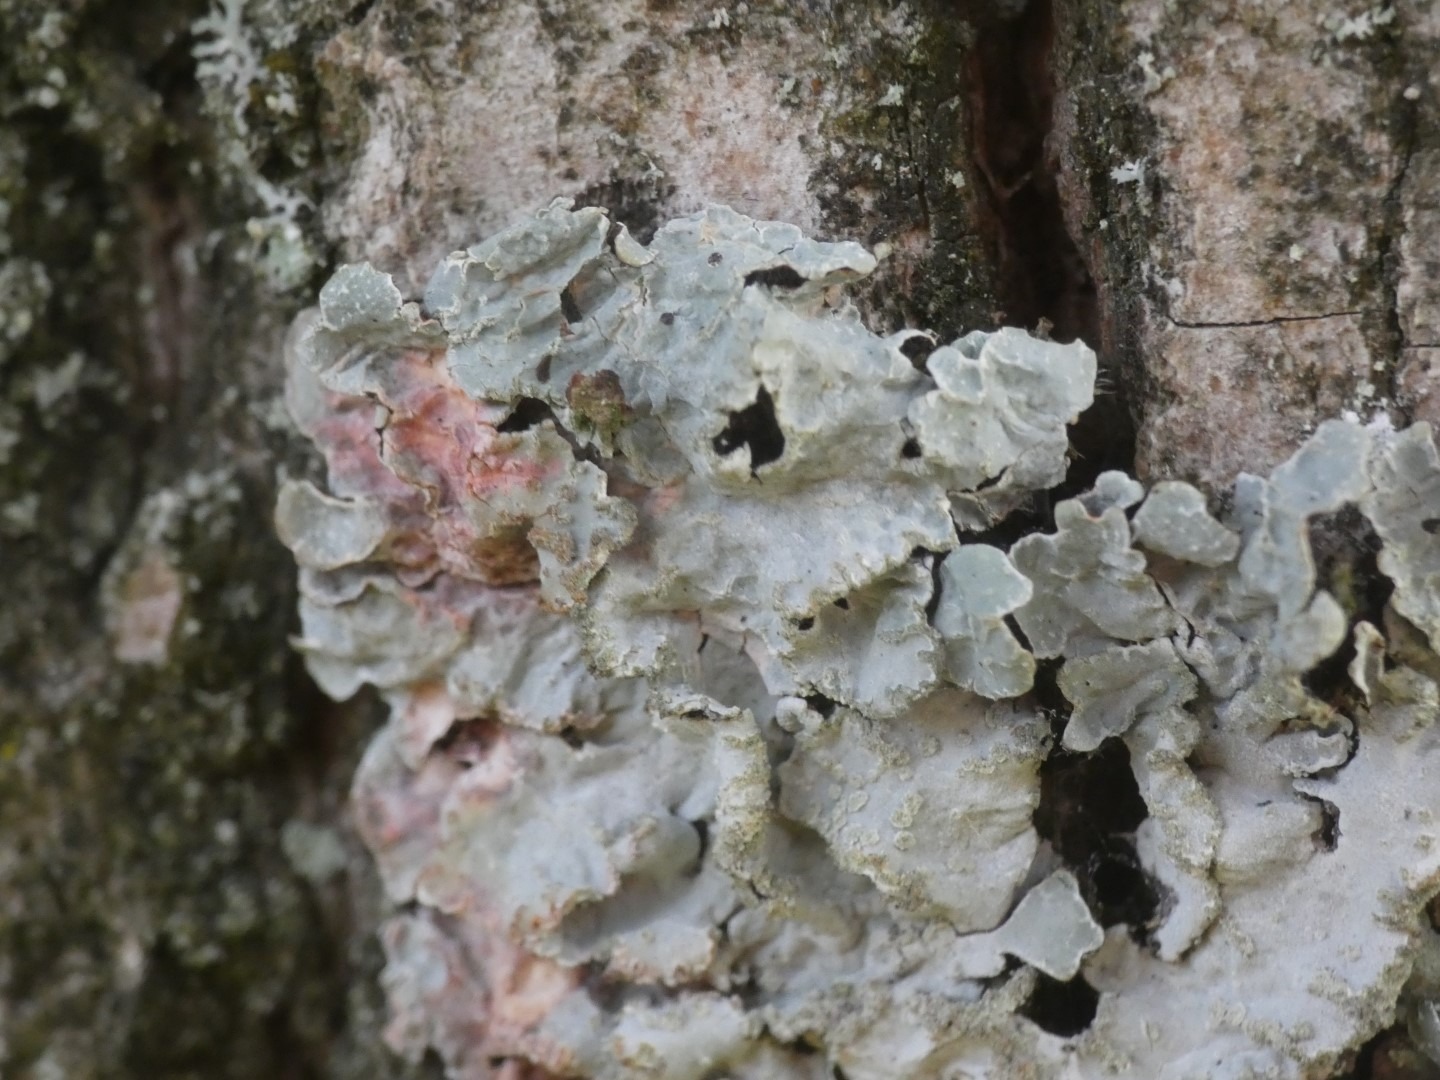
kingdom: Fungi
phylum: Ascomycota
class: Lecanoromycetes
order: Lecanorales
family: Parmeliaceae
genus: Parmelia
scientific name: Parmelia sulcata
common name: Rynket skållav
